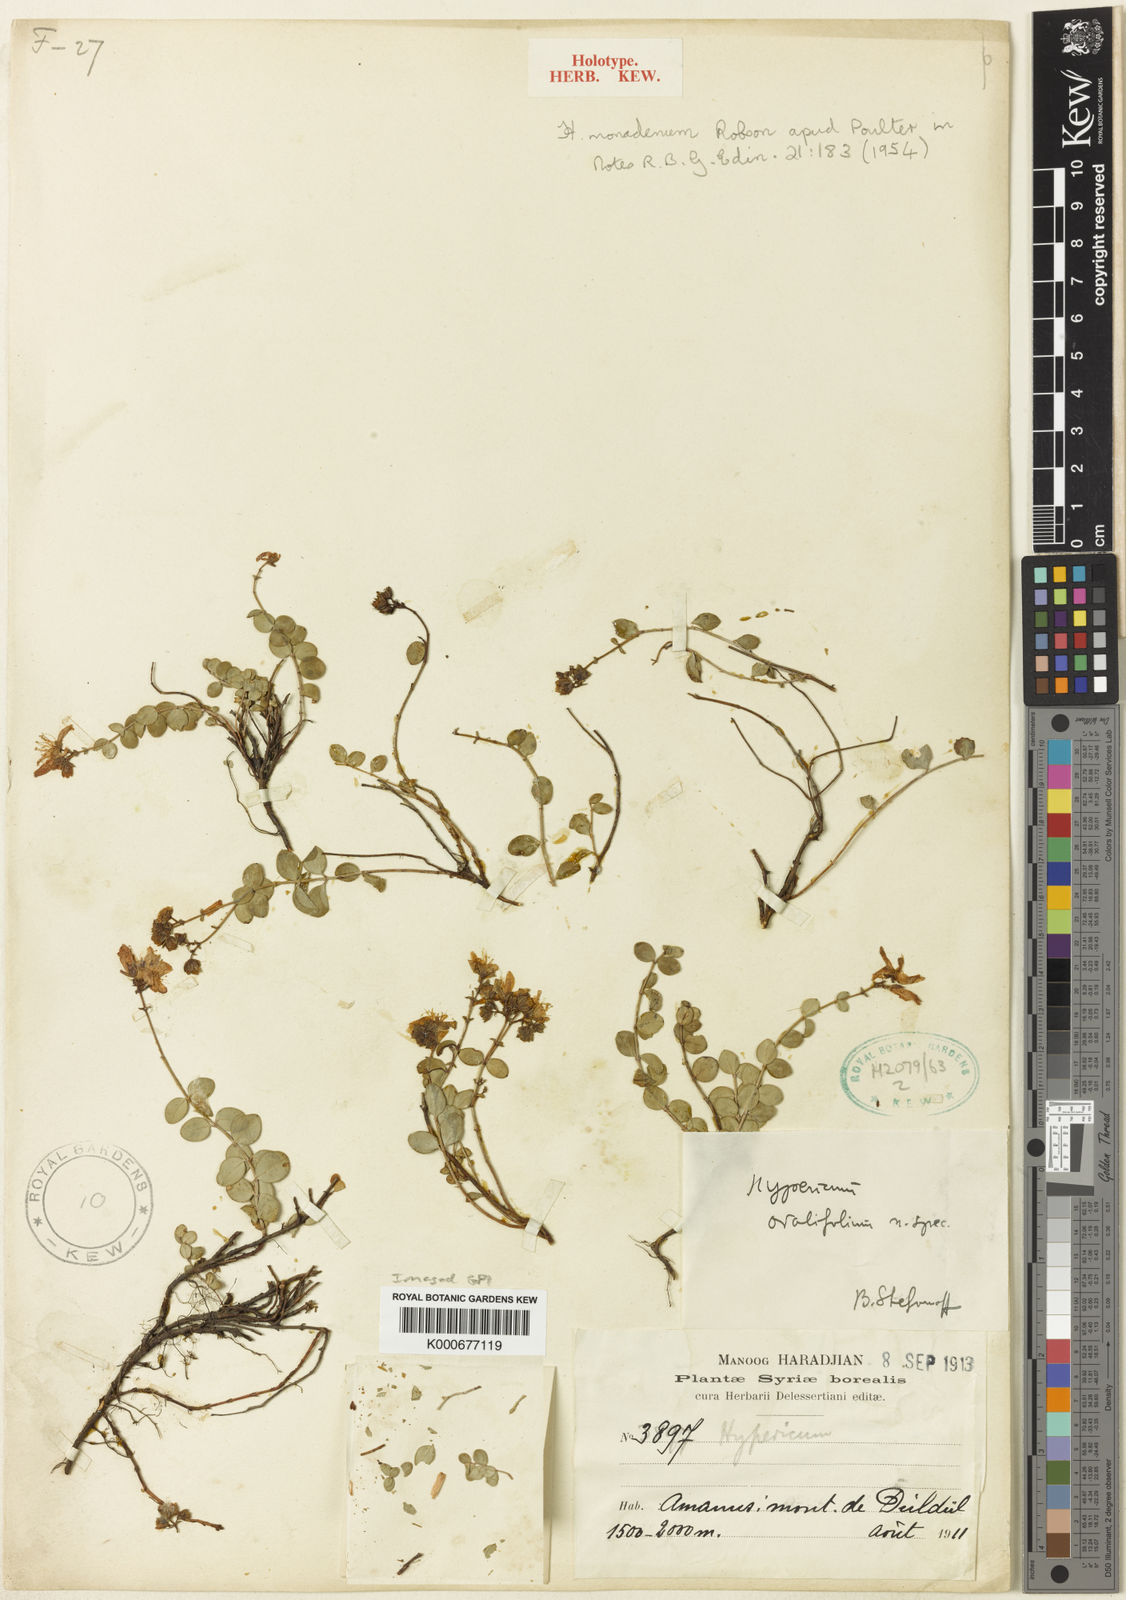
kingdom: Plantae
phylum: Tracheophyta
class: Magnoliopsida
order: Malpighiales
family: Hypericaceae
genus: Hypericum
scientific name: Hypericum monadenum
